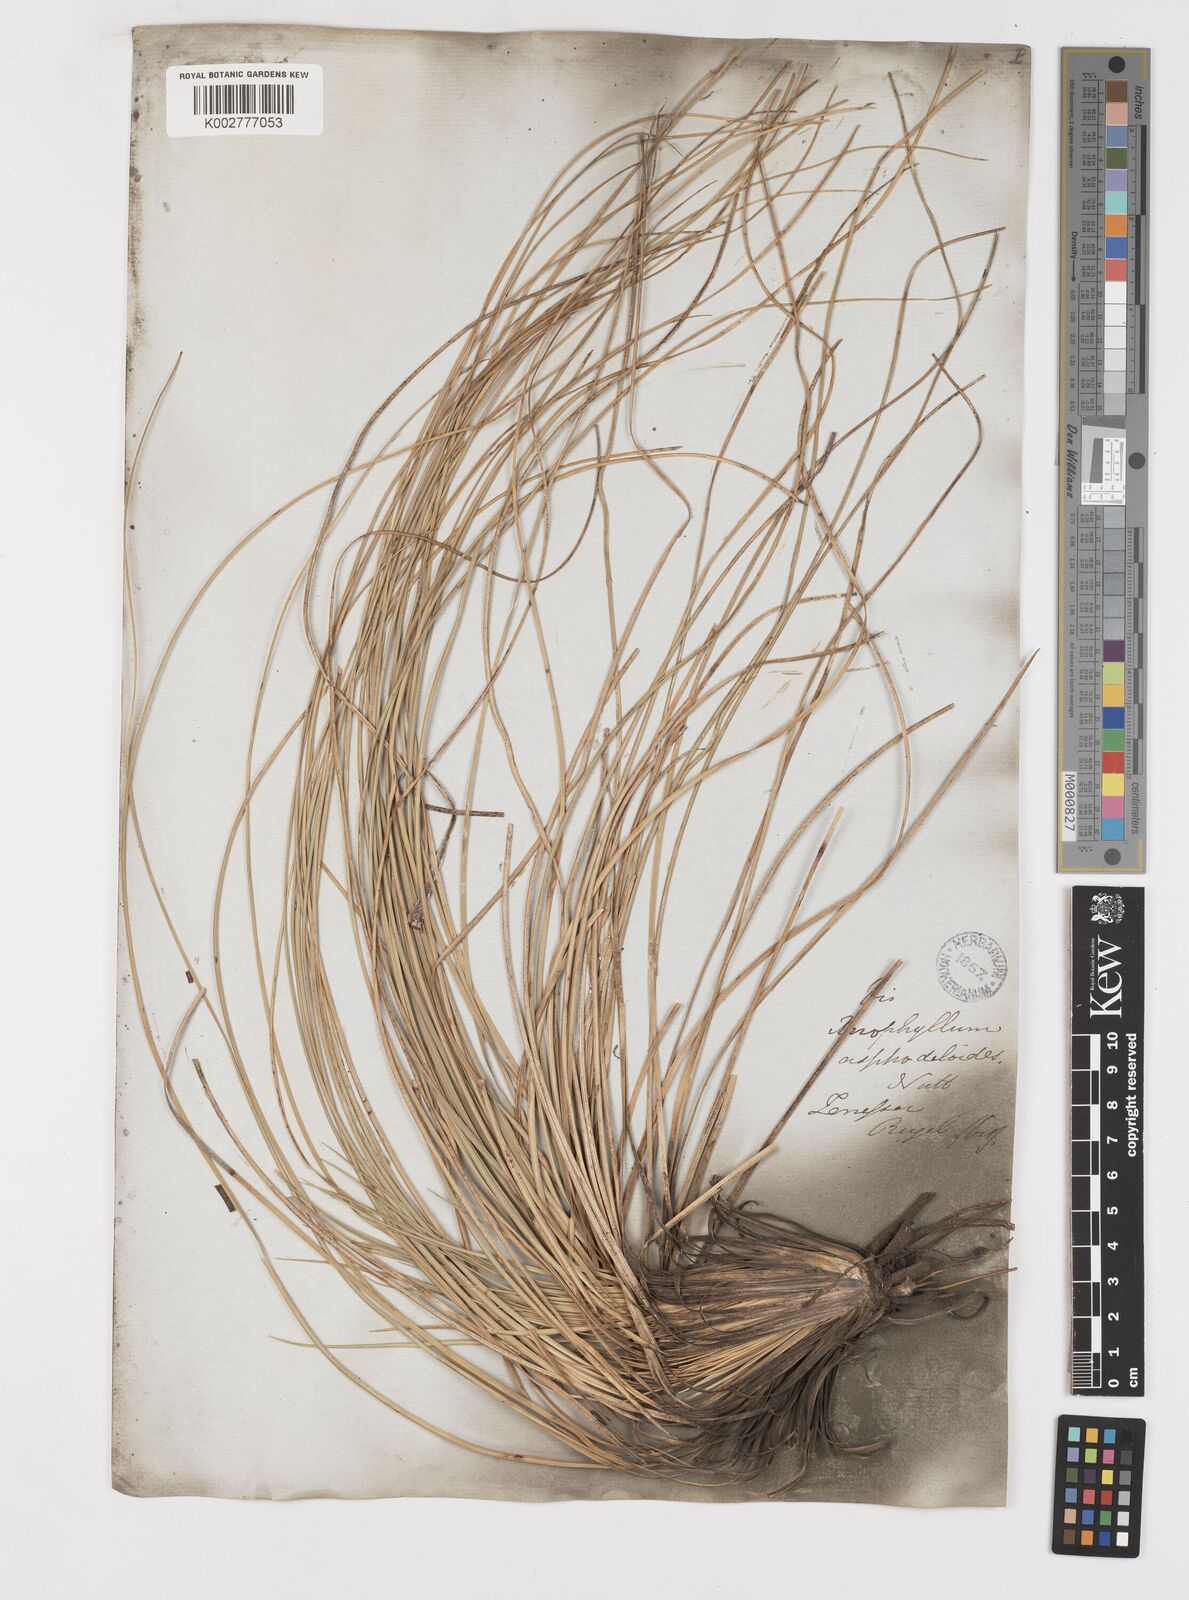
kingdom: Plantae
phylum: Tracheophyta
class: Liliopsida
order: Liliales
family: Melanthiaceae
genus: Xerophyllum
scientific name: Xerophyllum asphodeloides
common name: Mountain-asphodel
